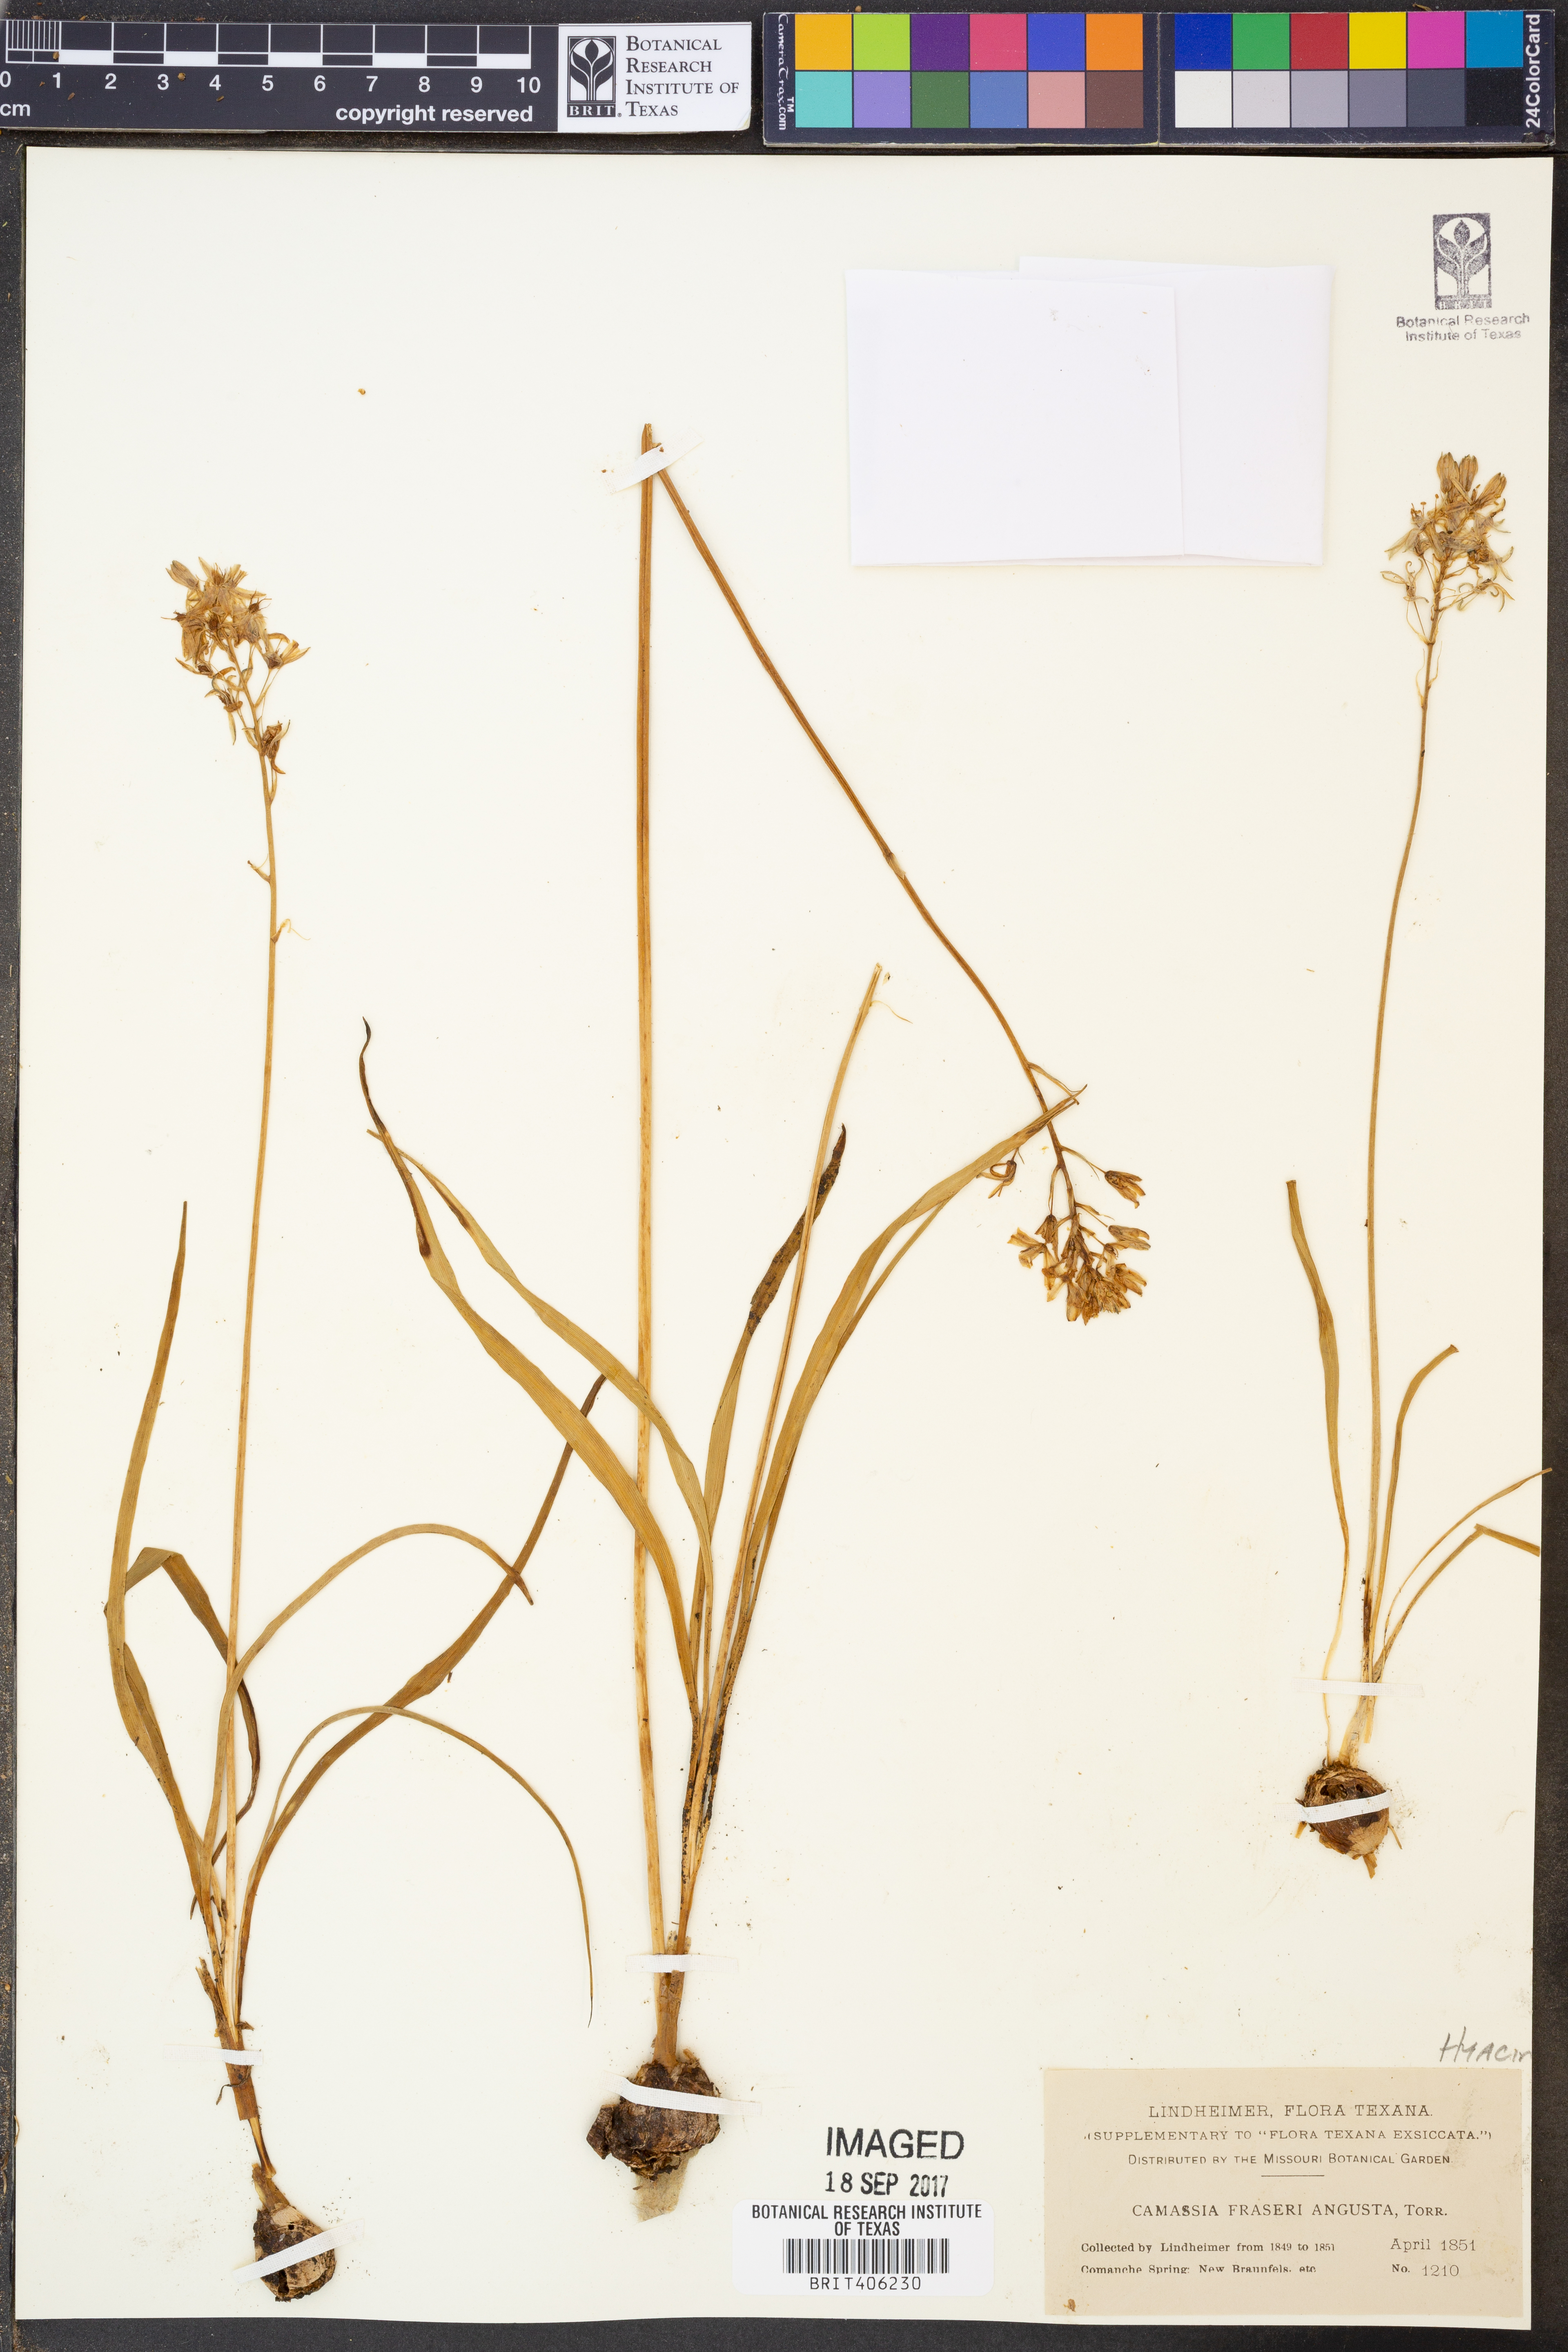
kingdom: Plantae
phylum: Tracheophyta
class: Liliopsida
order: Asparagales
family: Asparagaceae
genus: Camassia
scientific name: Camassia angusta
